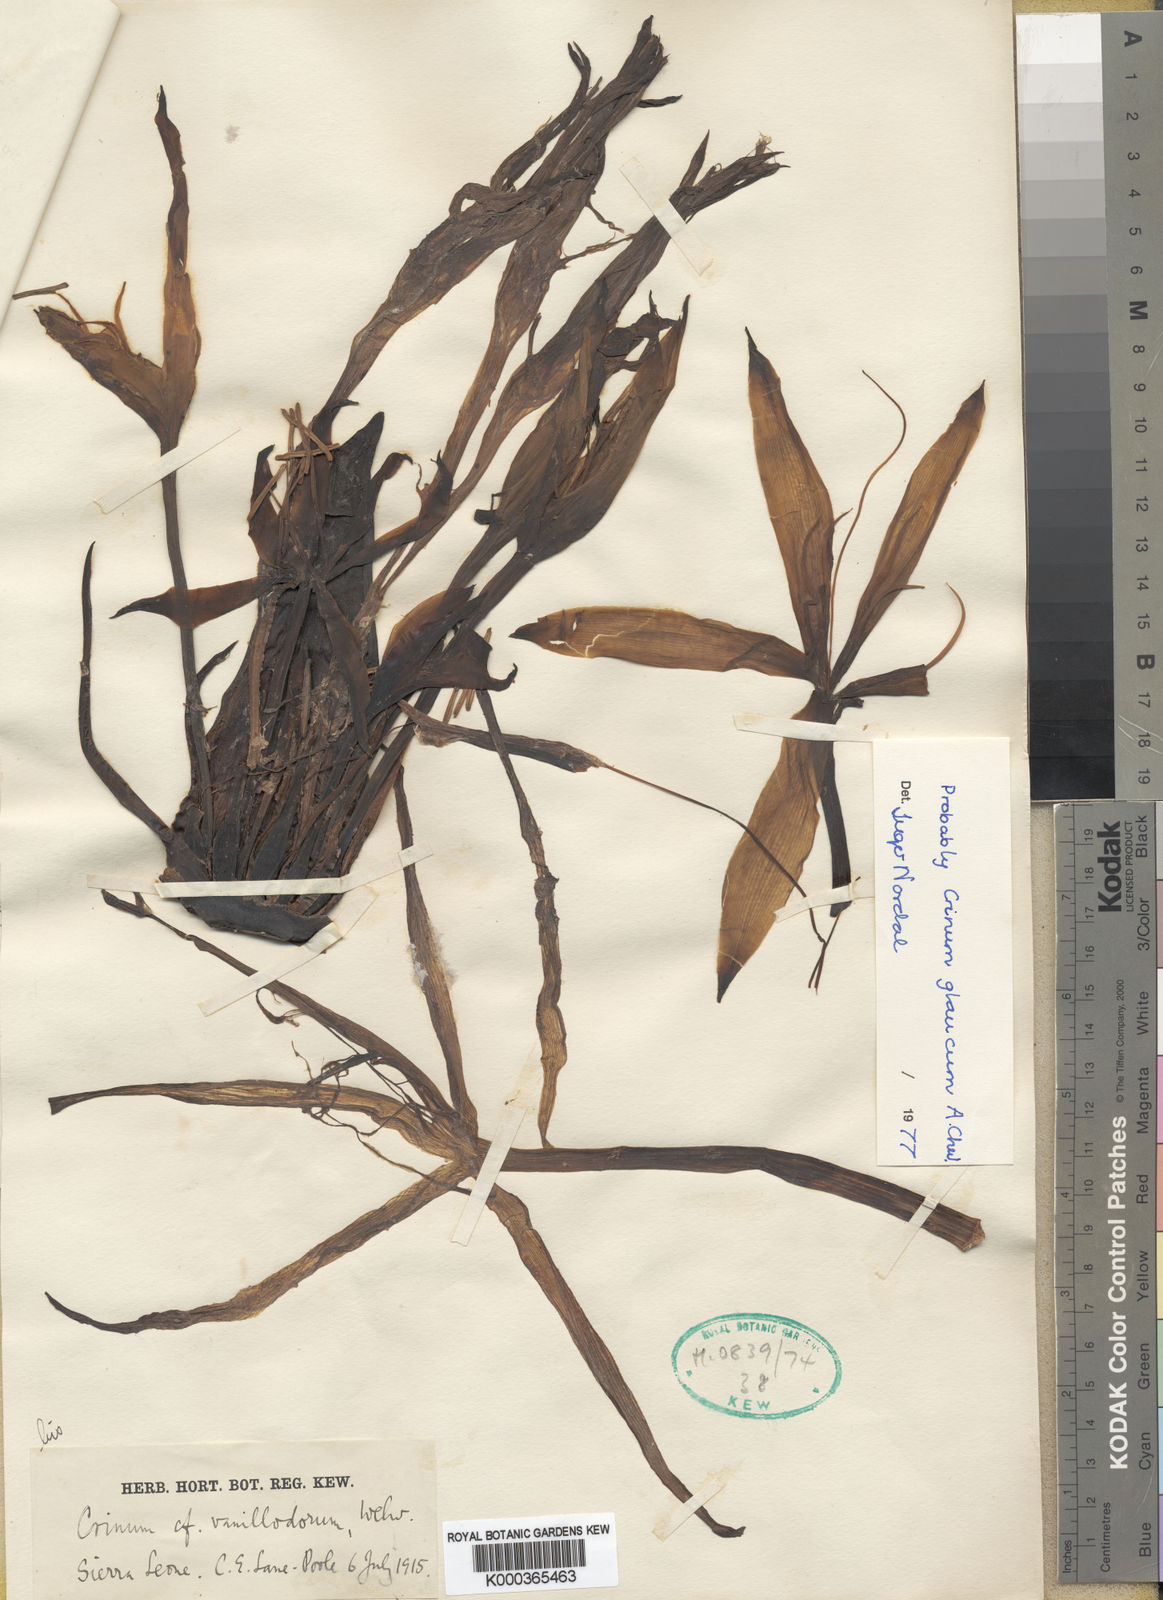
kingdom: Plantae
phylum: Tracheophyta
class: Liliopsida
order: Asparagales
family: Amaryllidaceae
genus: Crinum
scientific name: Crinum glaucum
